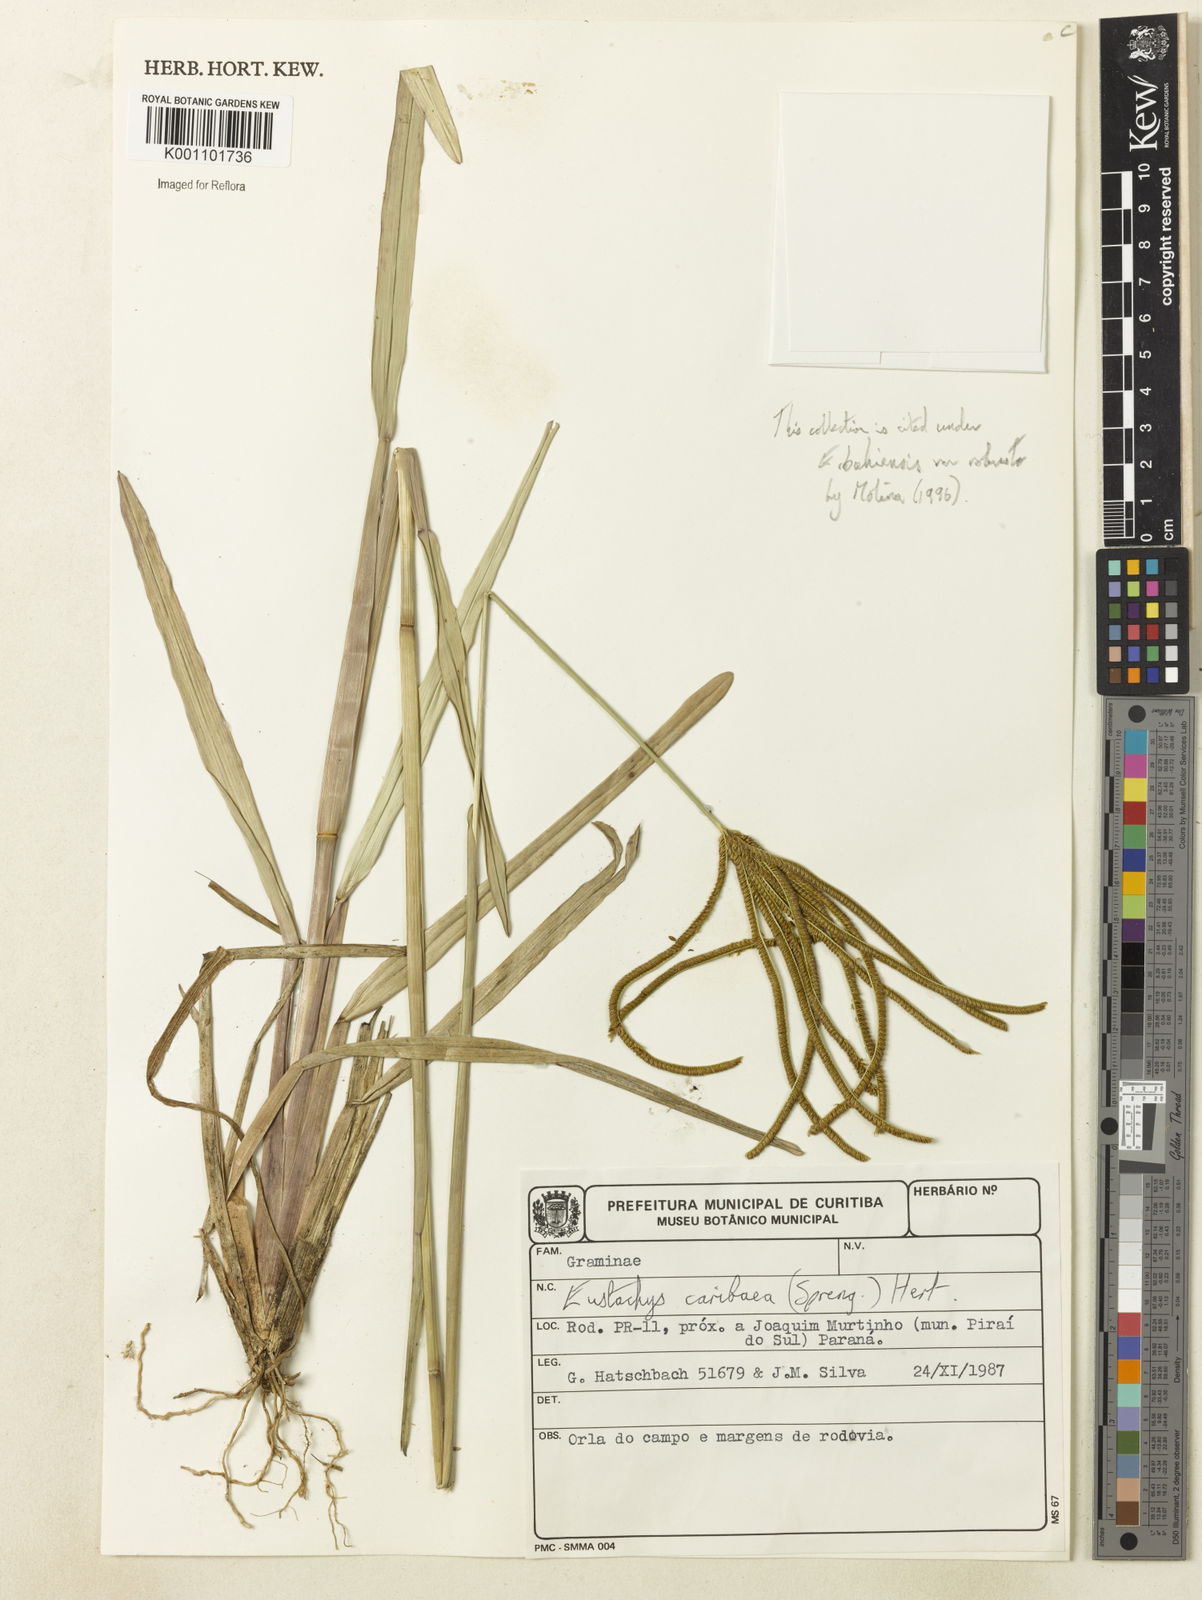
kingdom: Plantae
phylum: Tracheophyta
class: Liliopsida
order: Poales
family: Poaceae
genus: Eustachys
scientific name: Eustachys bahiensis
